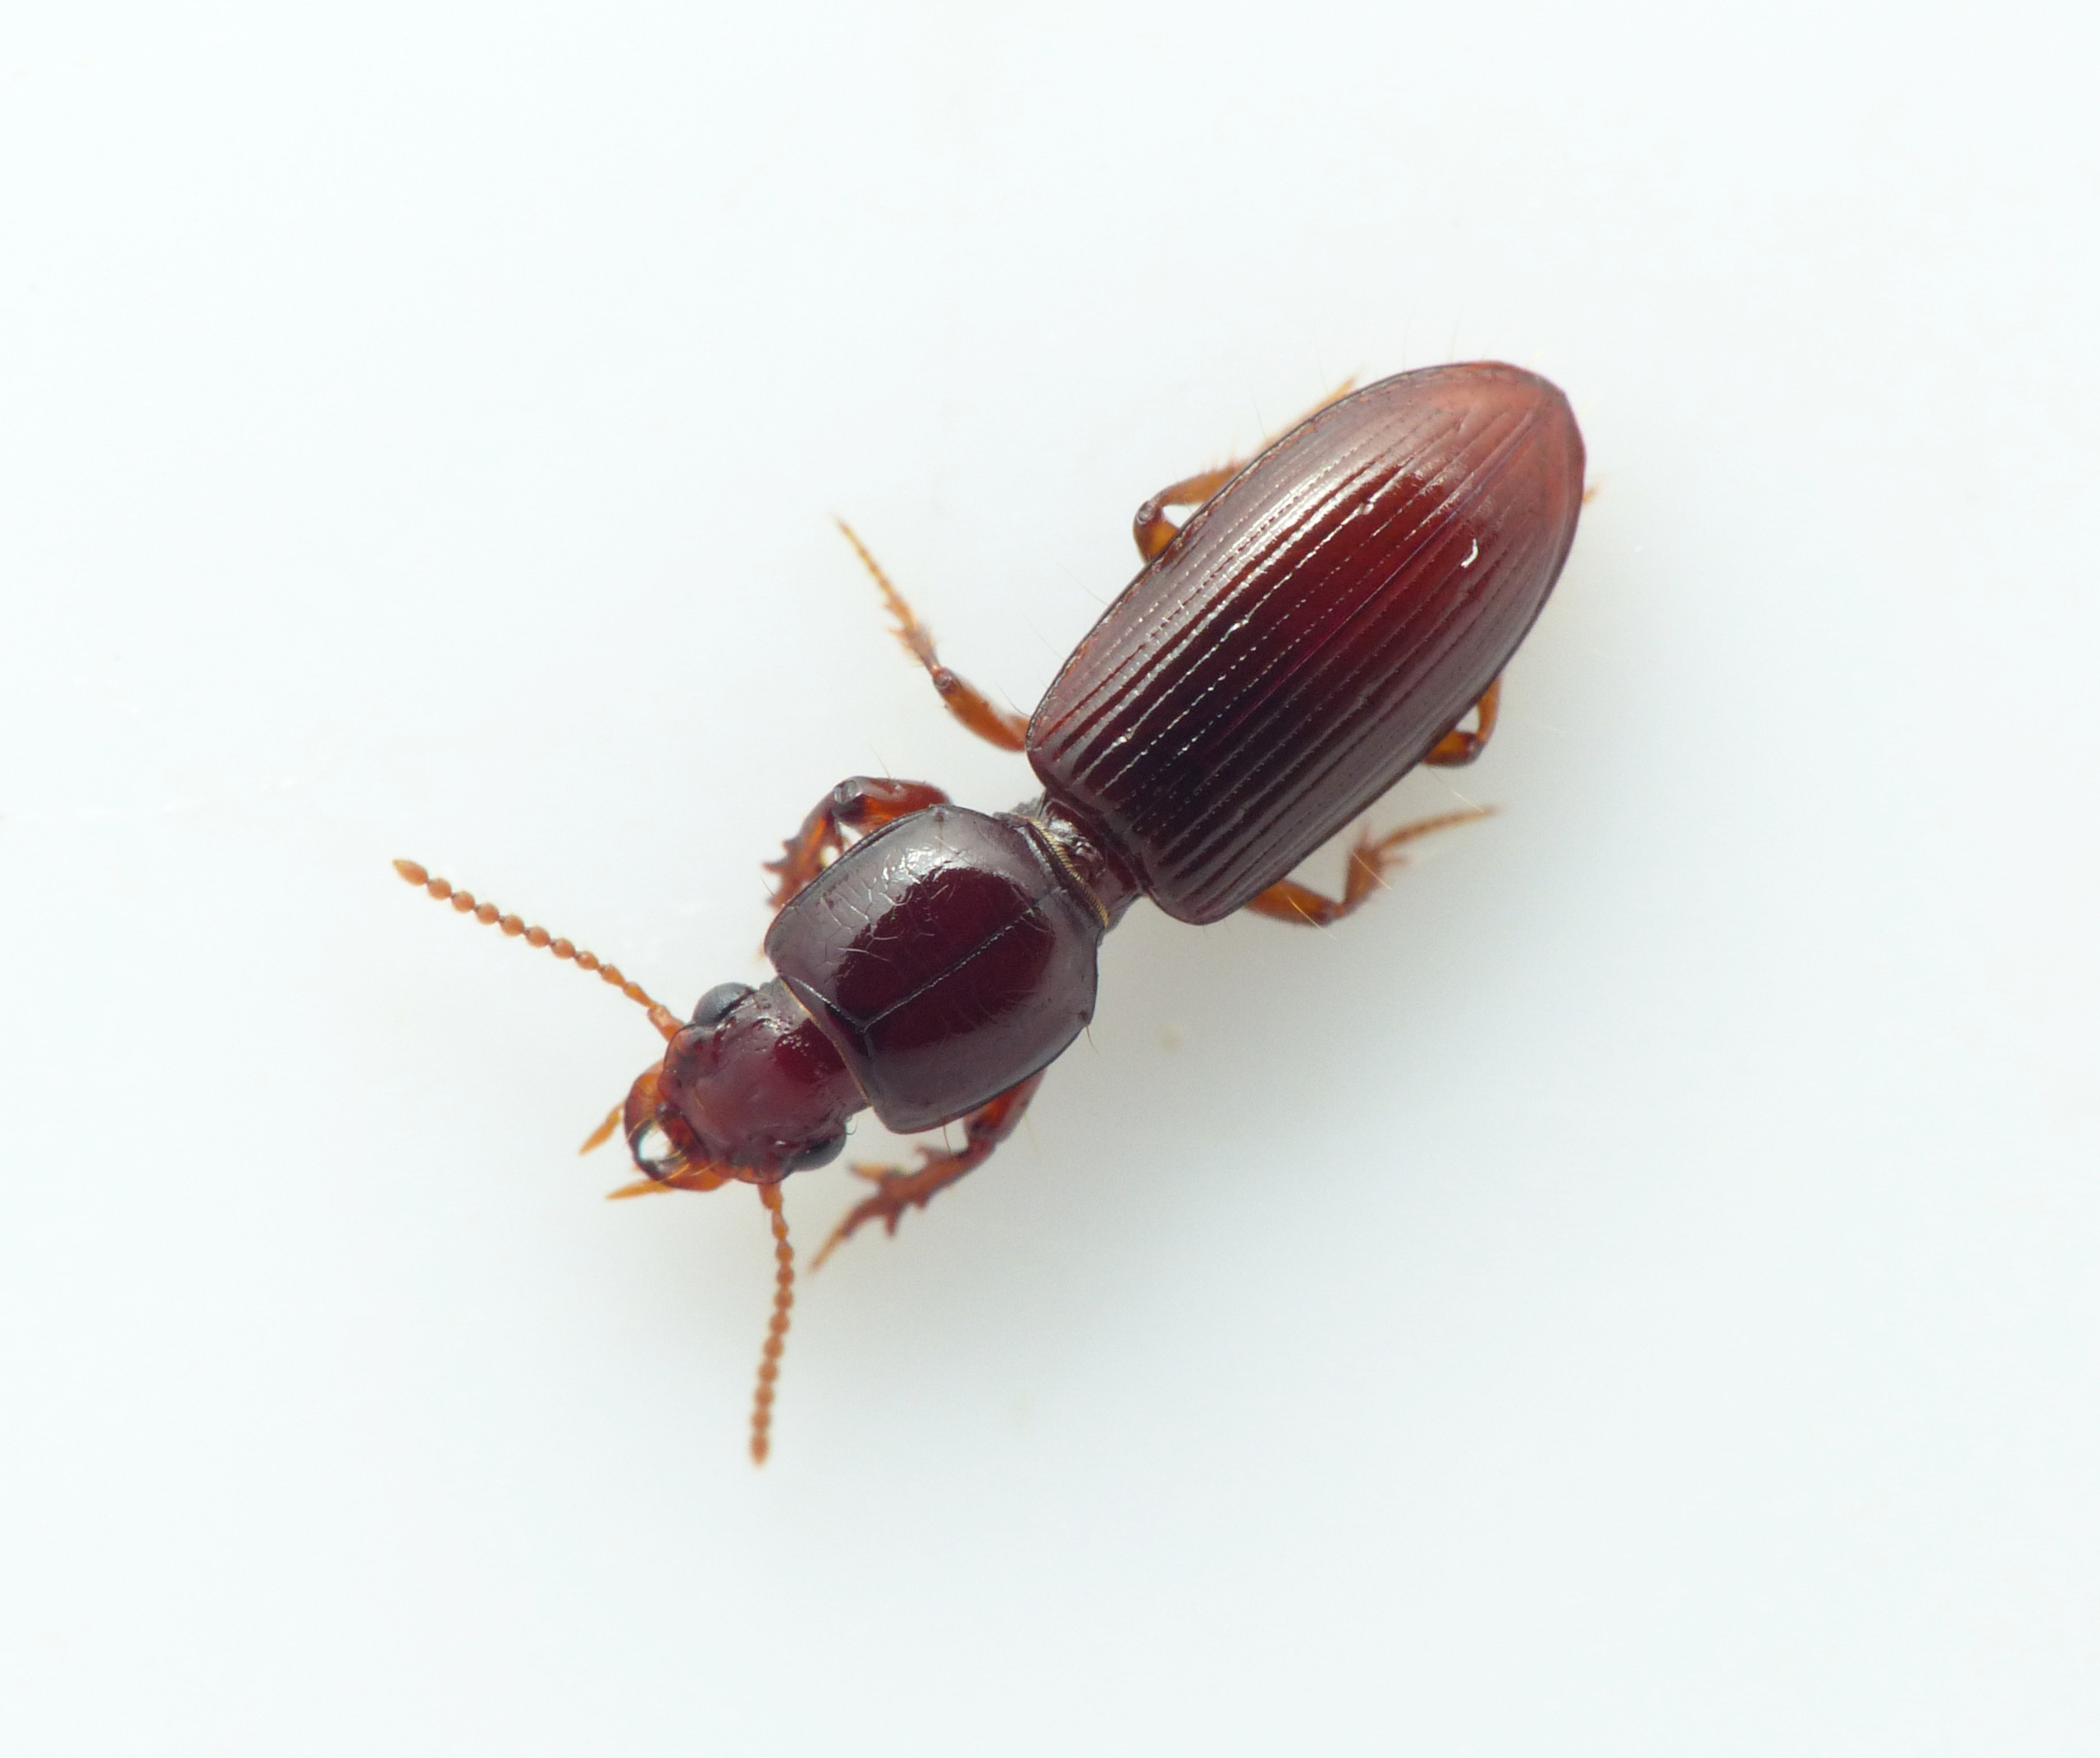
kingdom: Animalia
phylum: Arthropoda
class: Insecta
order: Coleoptera
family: Carabidae
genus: Clivina
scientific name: Clivina fossor
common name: Stor dovenløber
